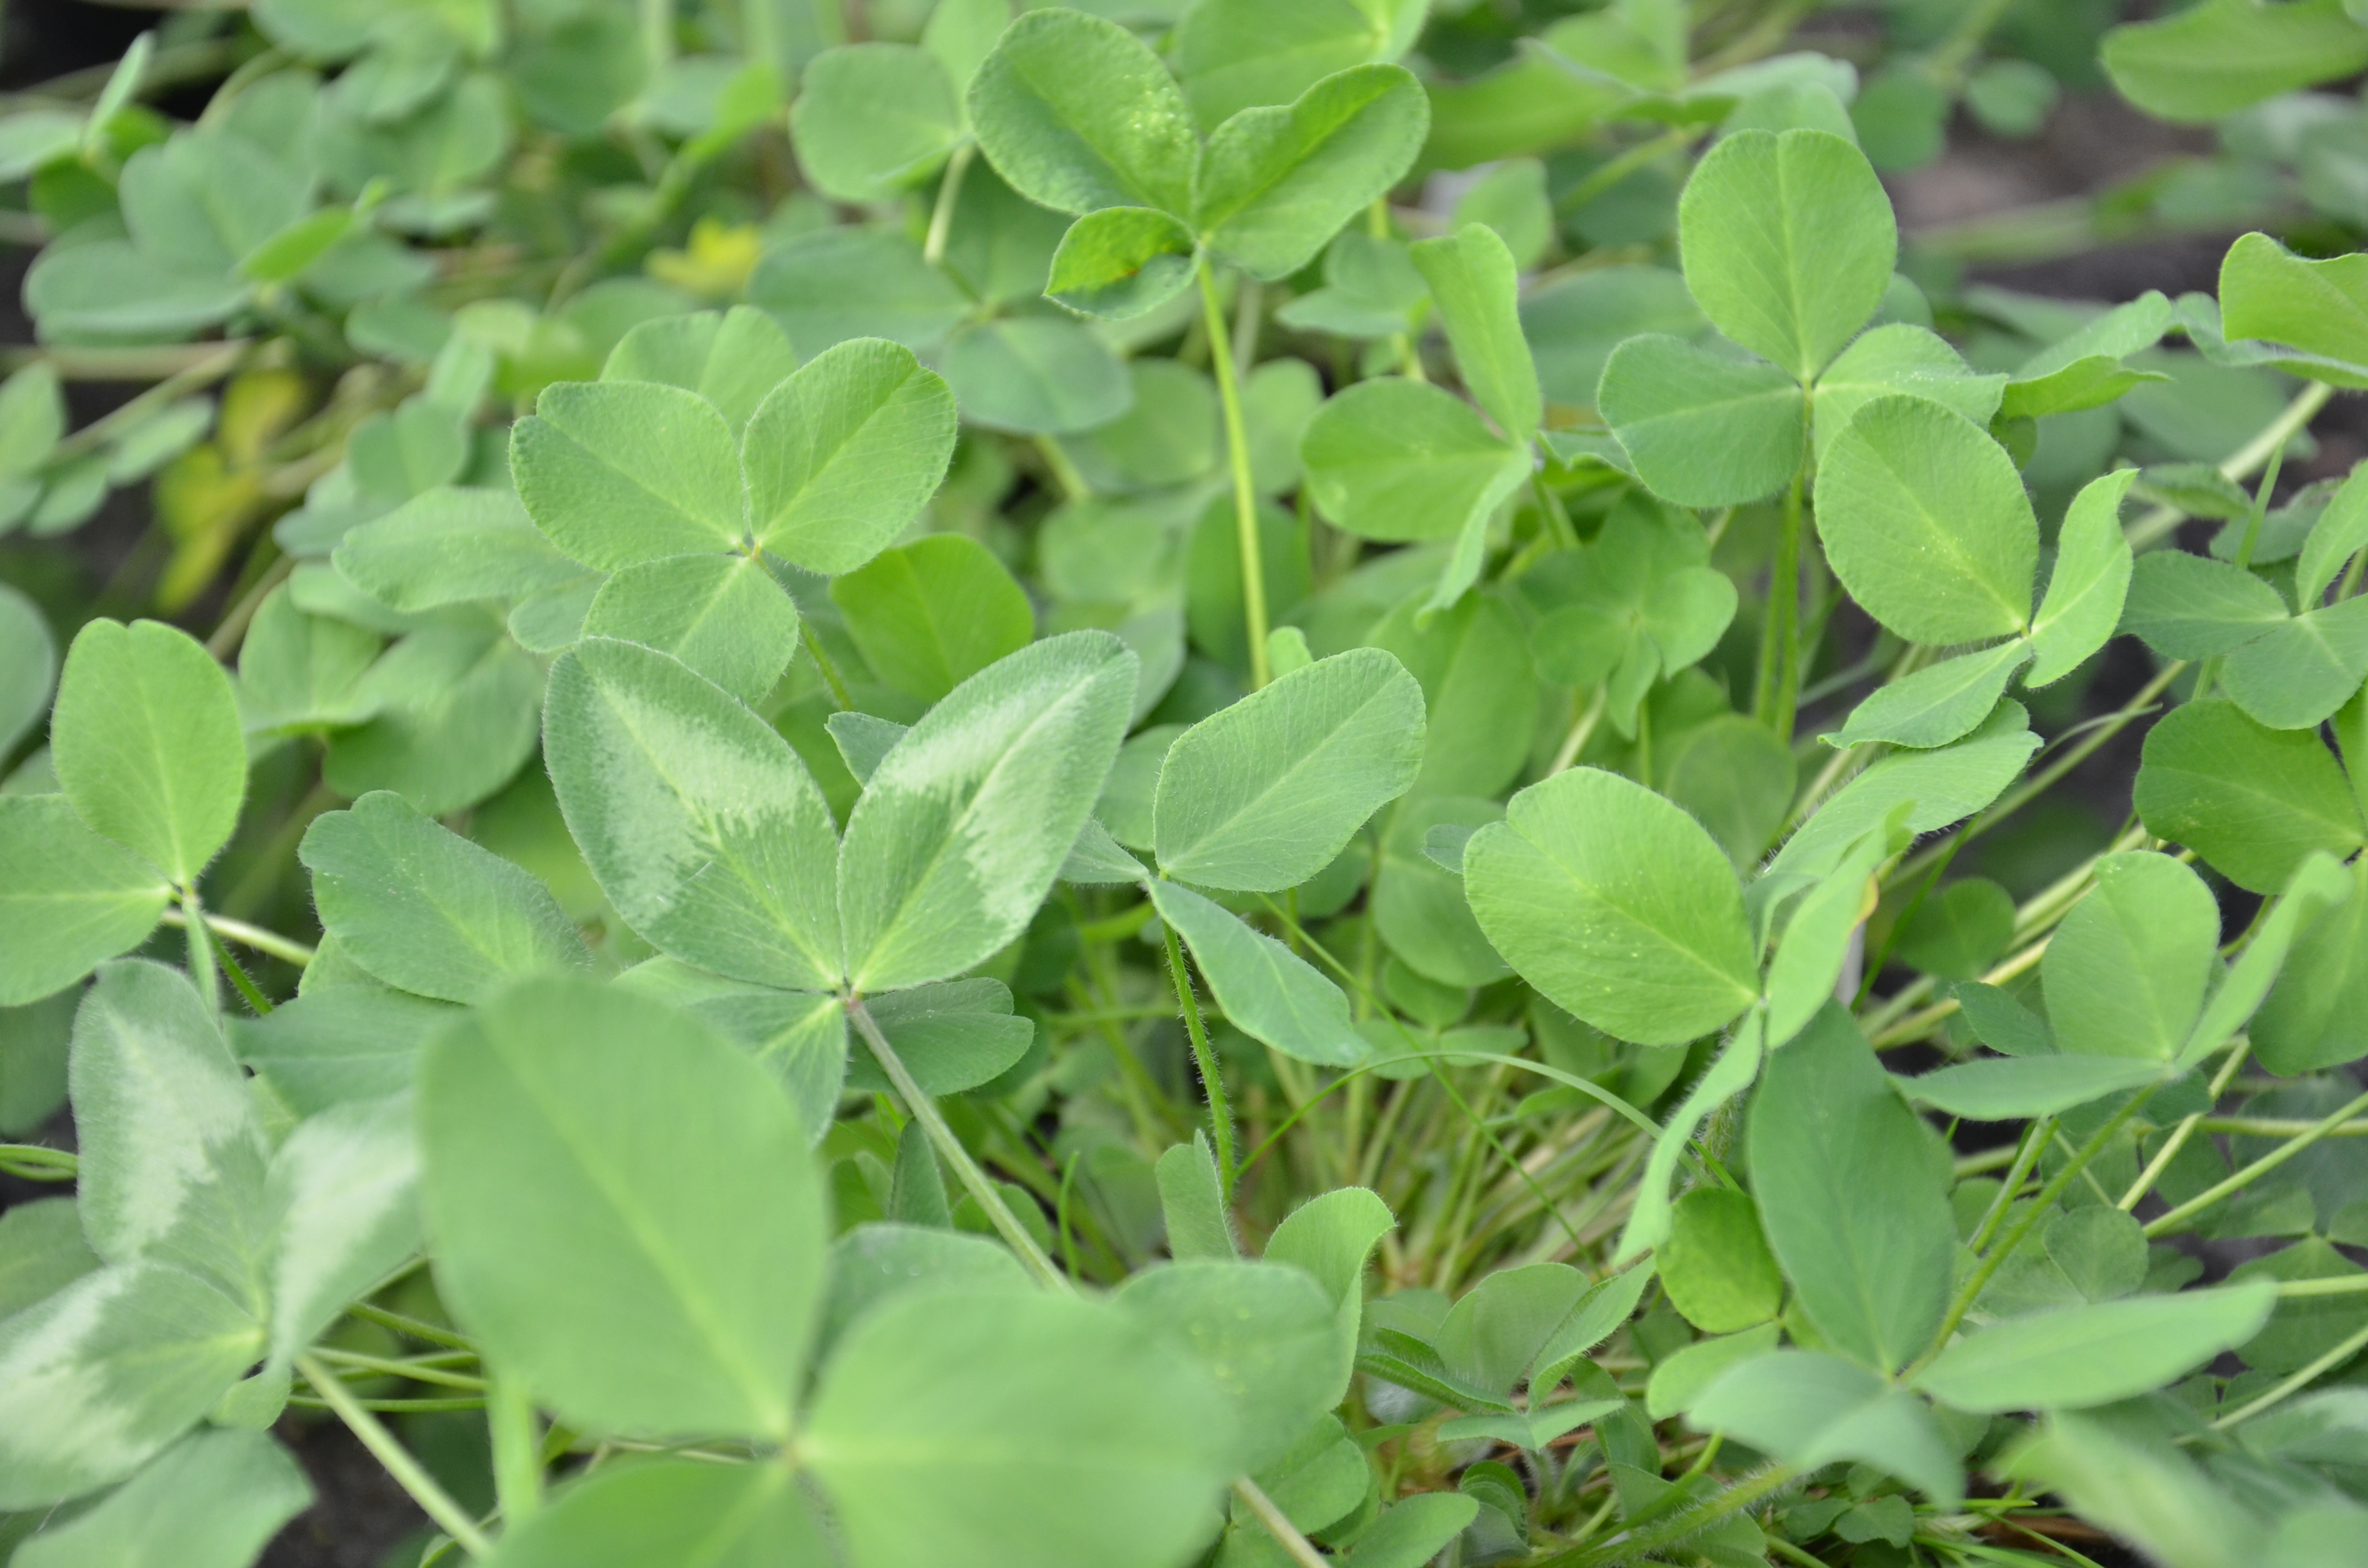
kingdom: Plantae
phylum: Tracheophyta
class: Magnoliopsida
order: Fabales
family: Fabaceae
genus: Trifolium
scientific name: Trifolium pratense
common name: Red clover
